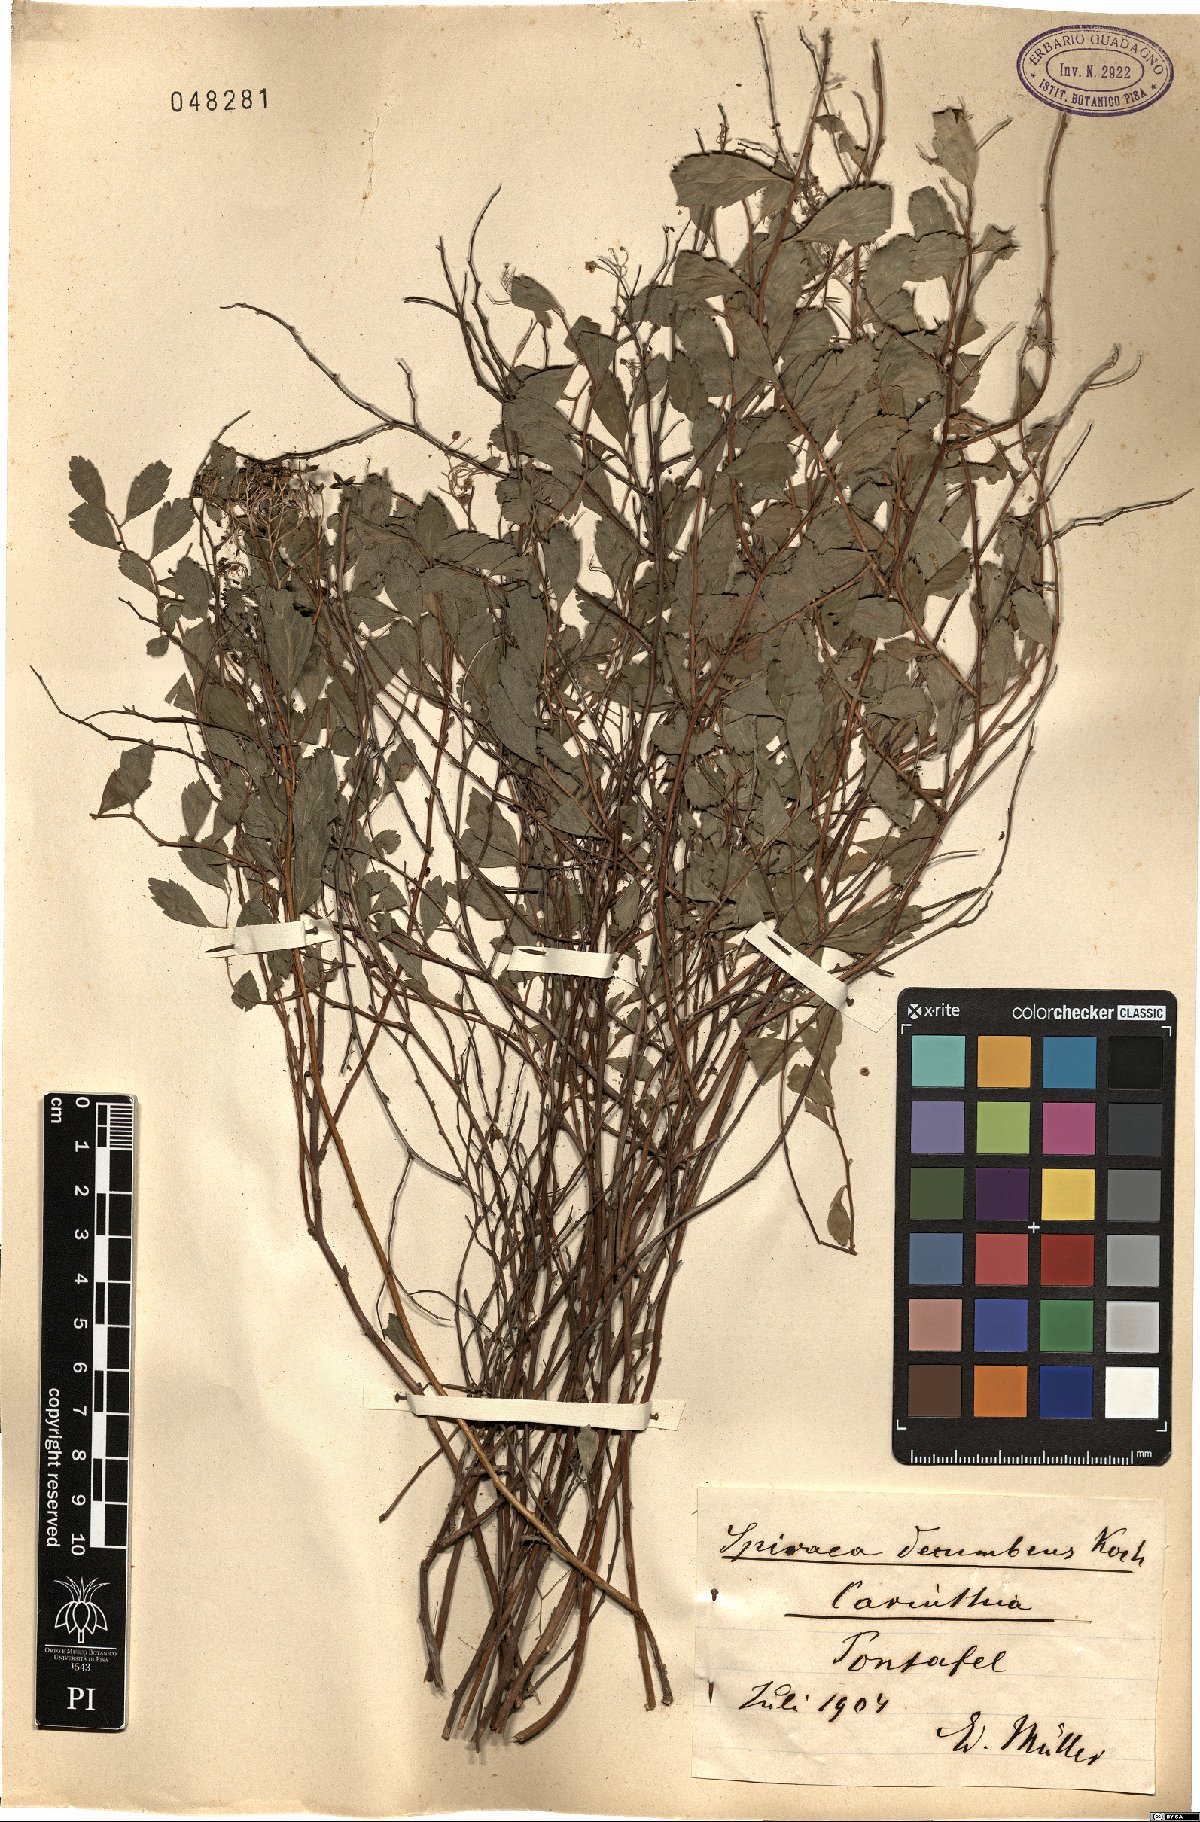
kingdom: Plantae
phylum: Tracheophyta
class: Magnoliopsida
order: Rosales
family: Rosaceae
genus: Spiraea
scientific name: Spiraea decumbens
